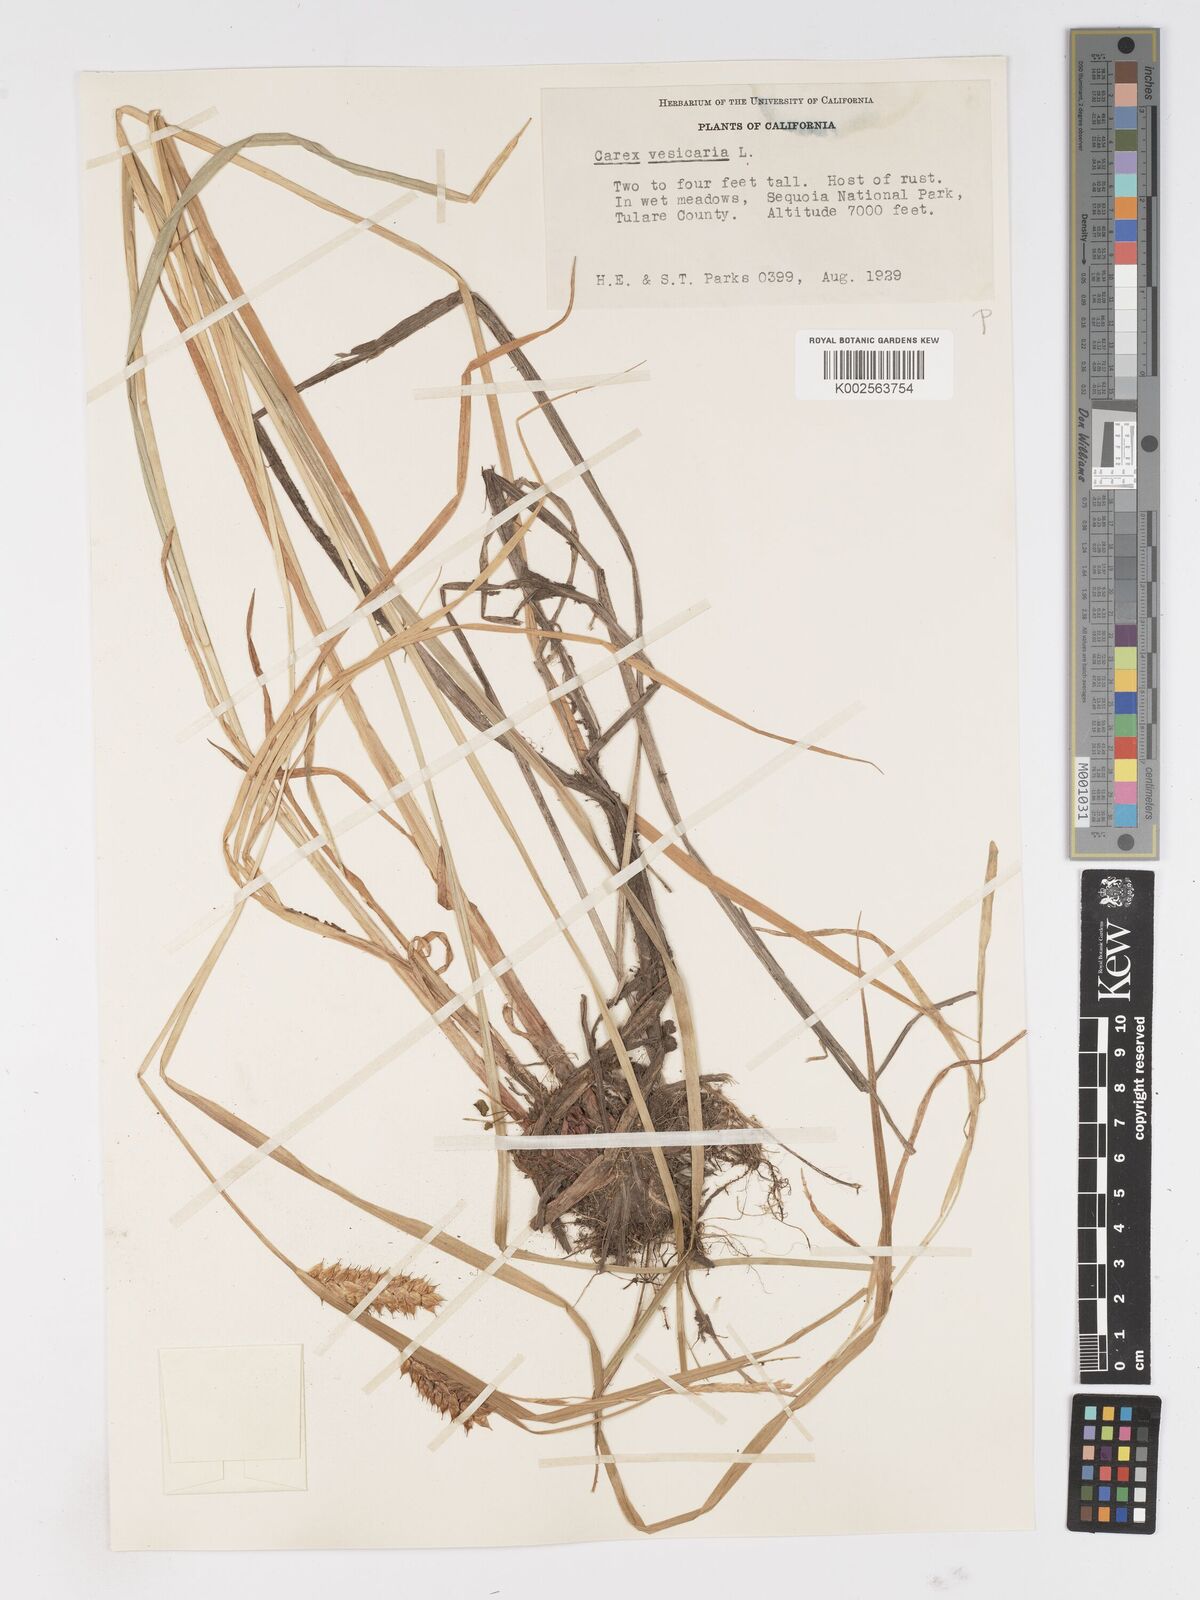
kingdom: Plantae
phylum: Tracheophyta
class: Liliopsida
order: Poales
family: Cyperaceae
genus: Carex
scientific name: Carex vesicaria
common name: Bladder-sedge
